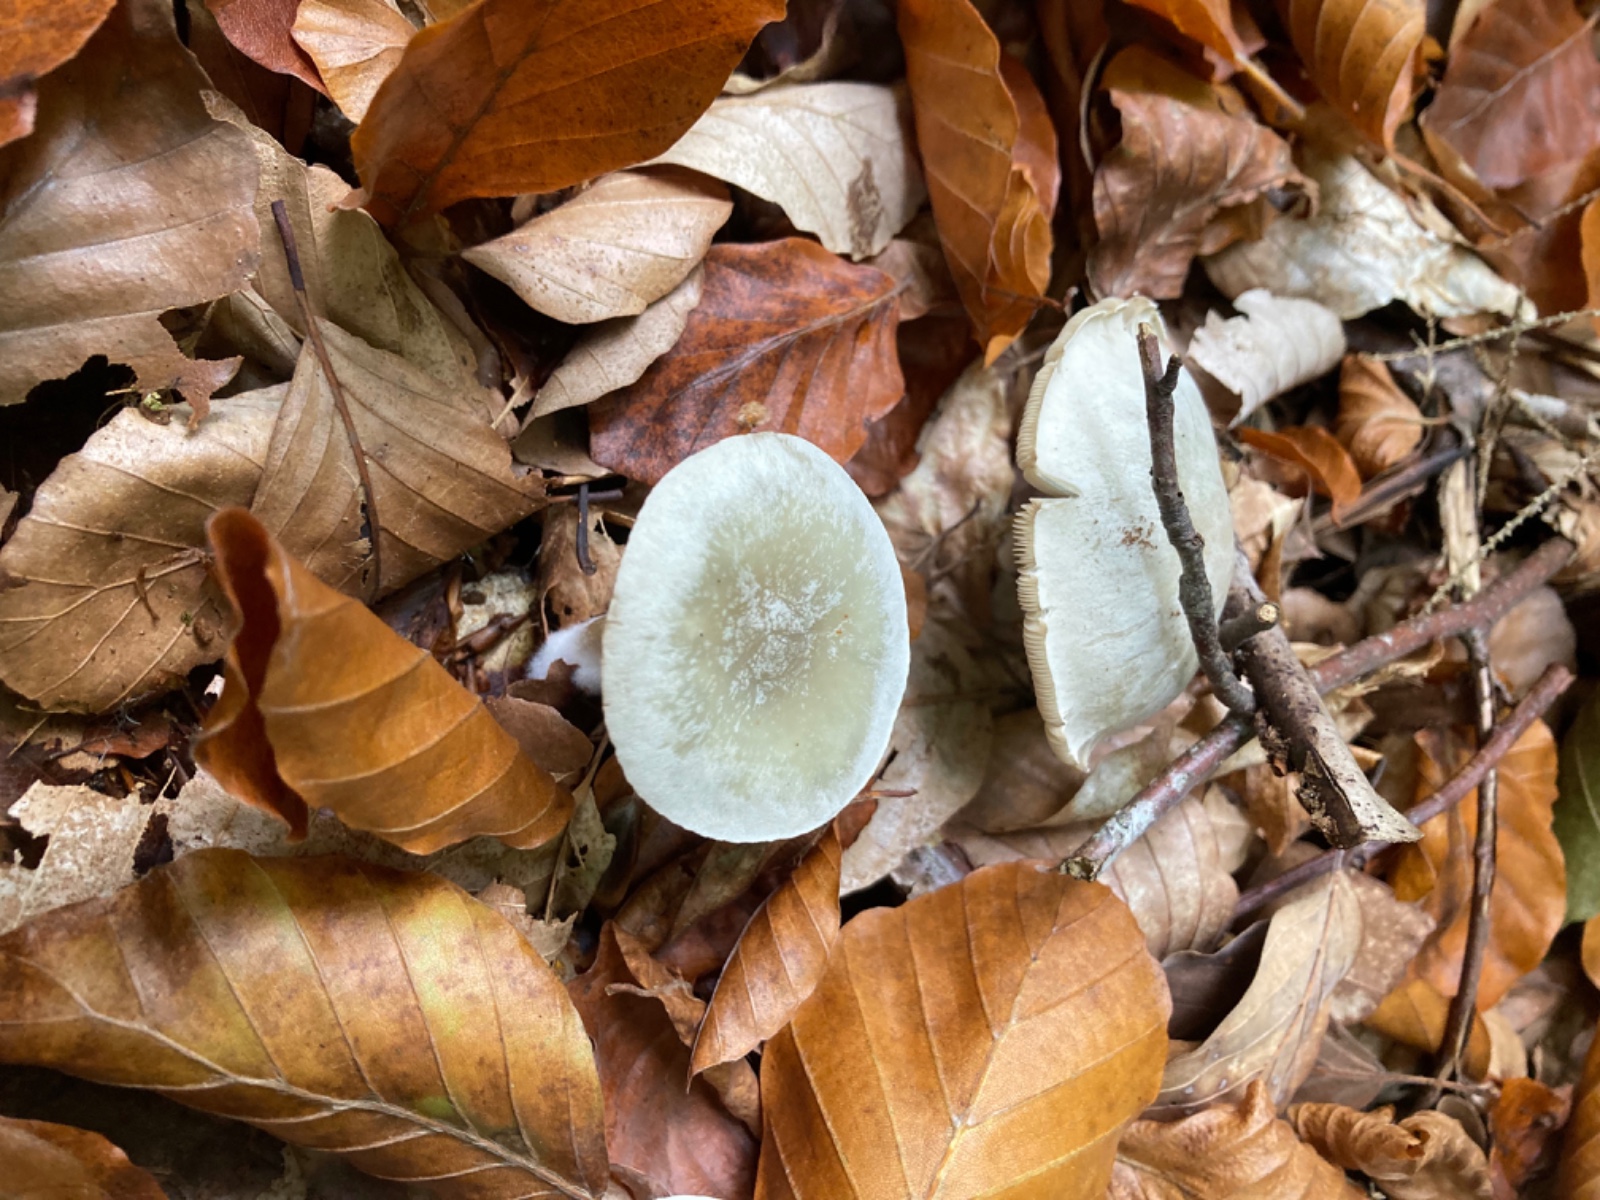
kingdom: Fungi
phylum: Basidiomycota
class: Agaricomycetes
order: Agaricales
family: Tricholomataceae
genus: Clitocybe
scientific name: Clitocybe odora
